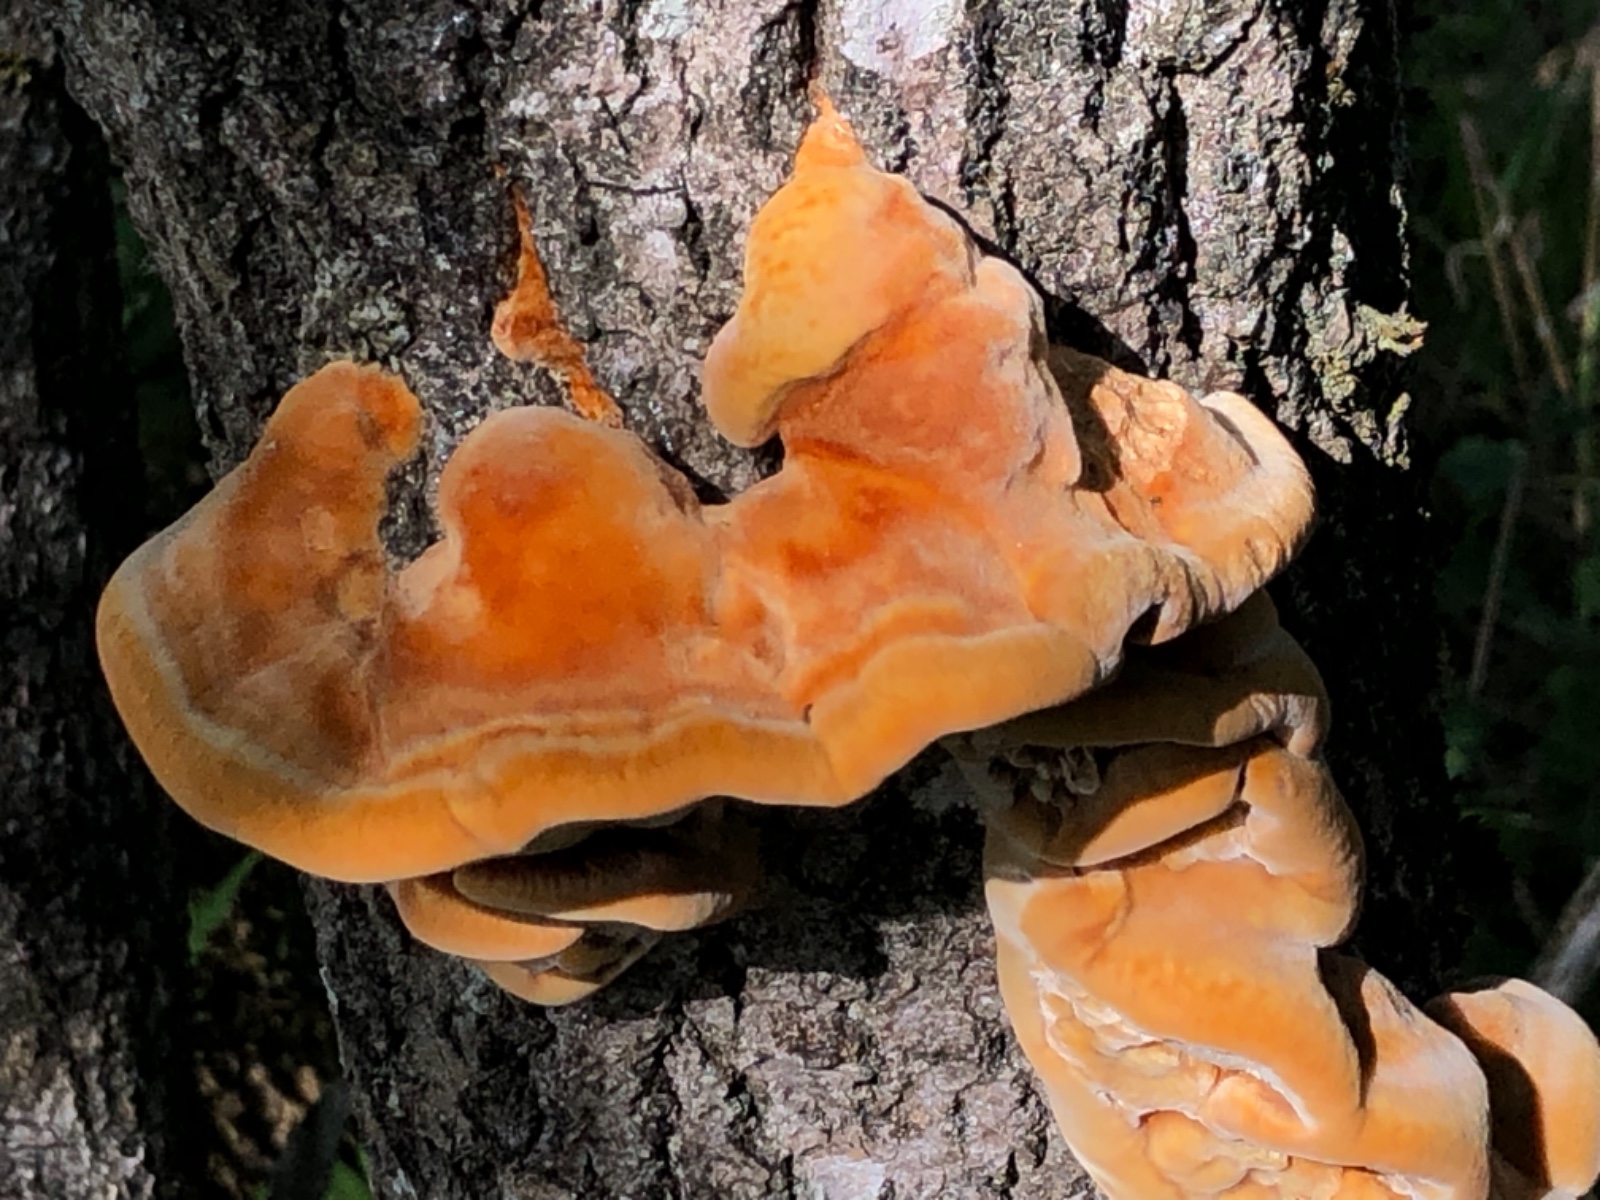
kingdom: Fungi
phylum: Basidiomycota
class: Agaricomycetes
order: Hymenochaetales
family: Hymenochaetaceae
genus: Inocutis
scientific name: Inocutis rheades
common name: ræve-spejlporesvamp
